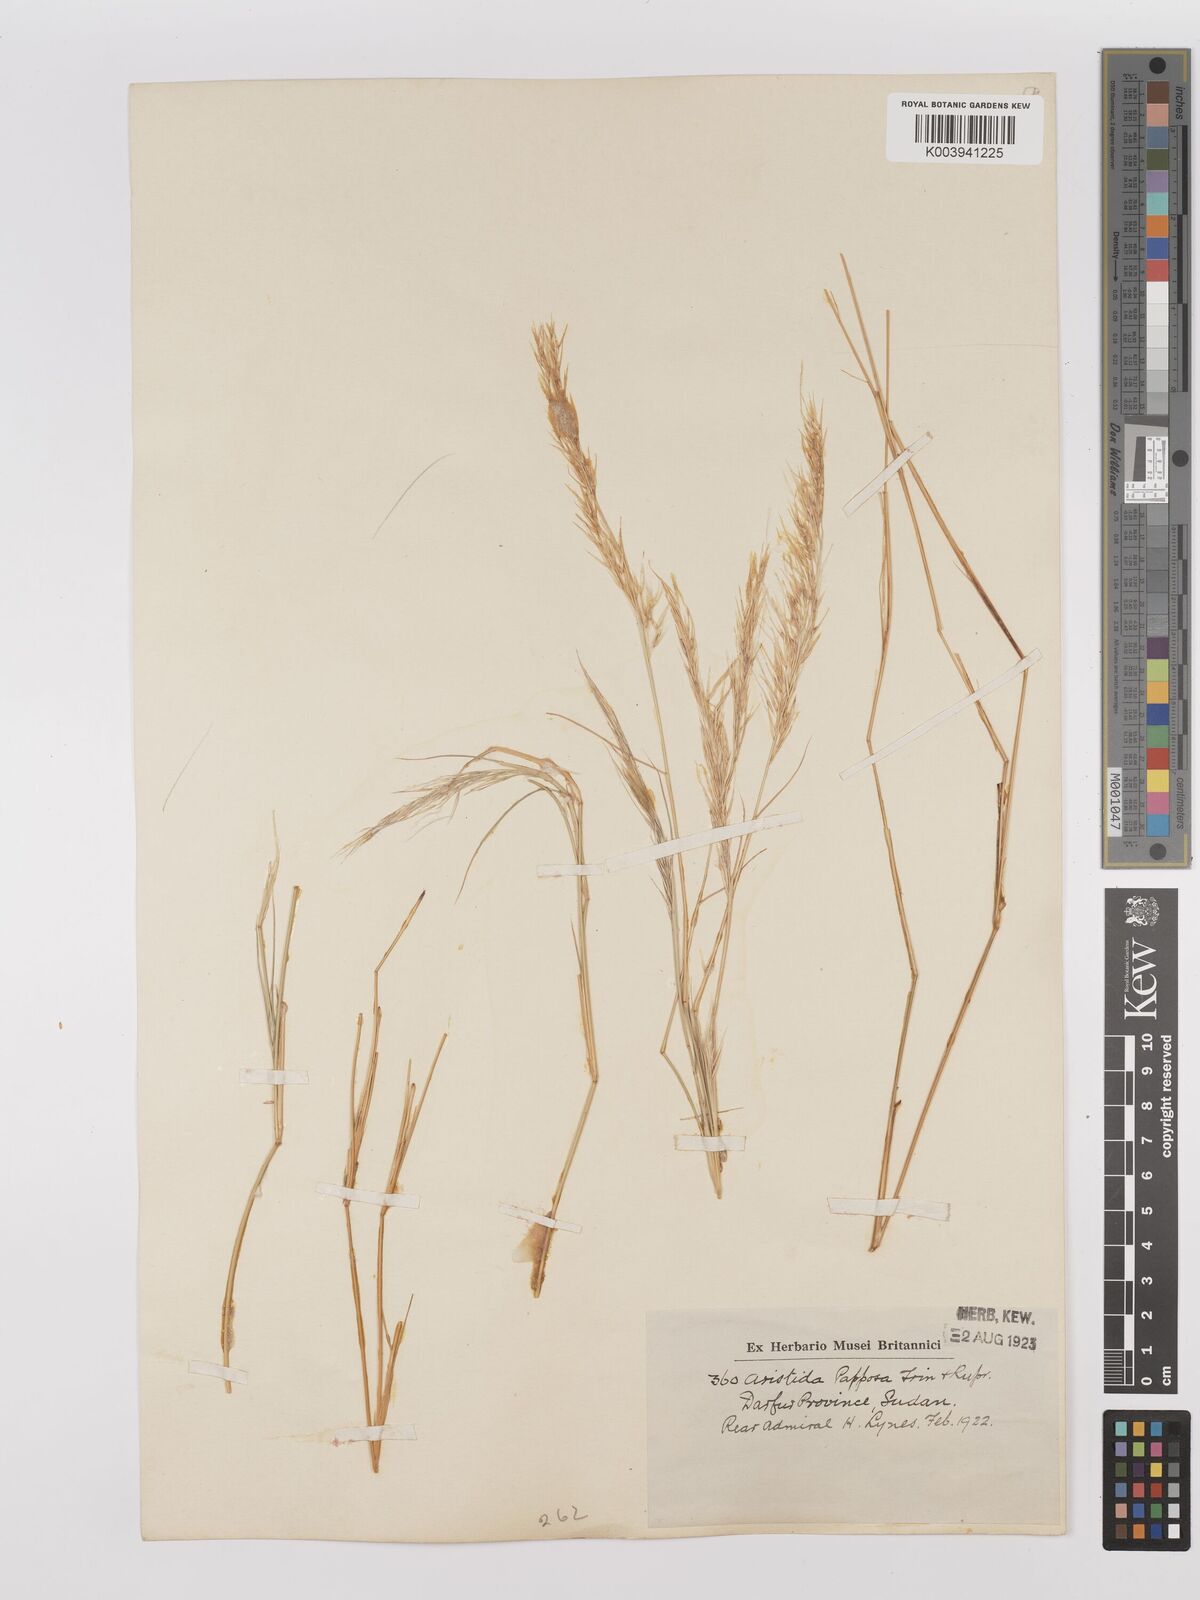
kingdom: Plantae
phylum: Tracheophyta
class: Liliopsida
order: Poales
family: Poaceae
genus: Stipagrostis
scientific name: Stipagrostis uniplumis
